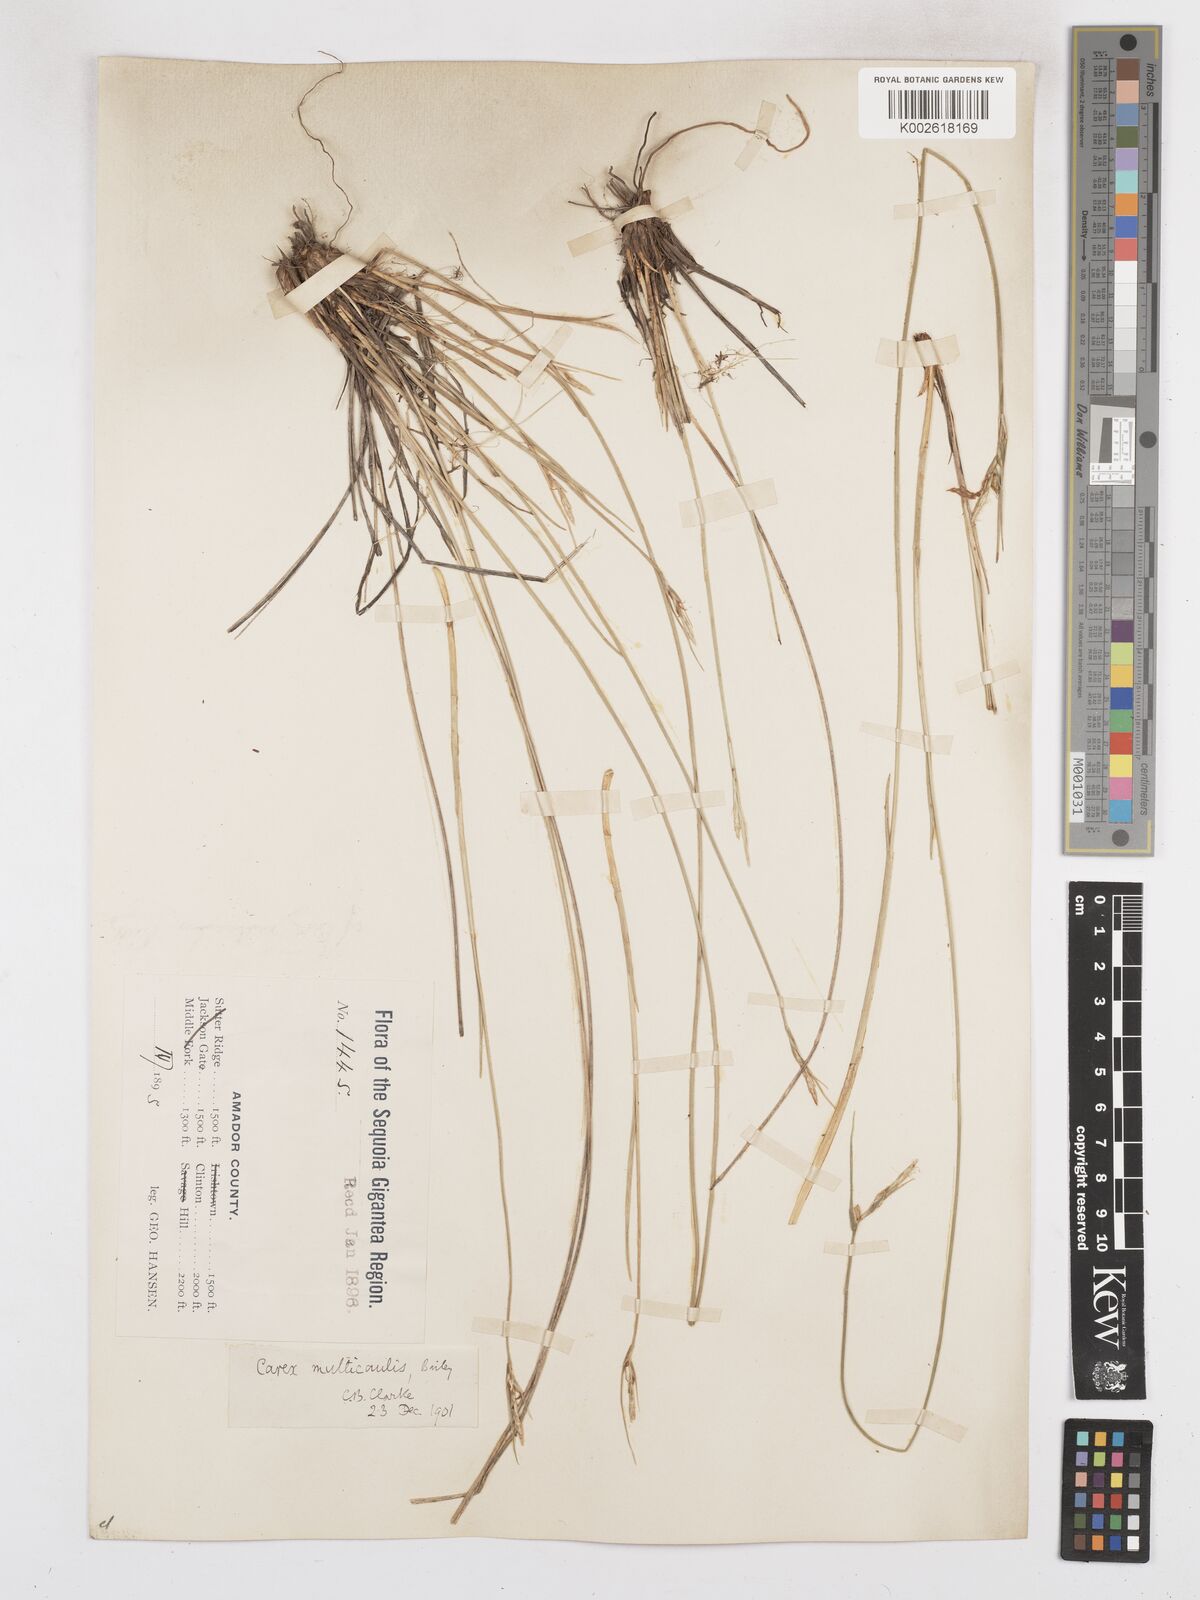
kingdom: Plantae
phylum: Tracheophyta
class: Liliopsida
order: Poales
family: Cyperaceae
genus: Carex
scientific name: Carex multicaulis
